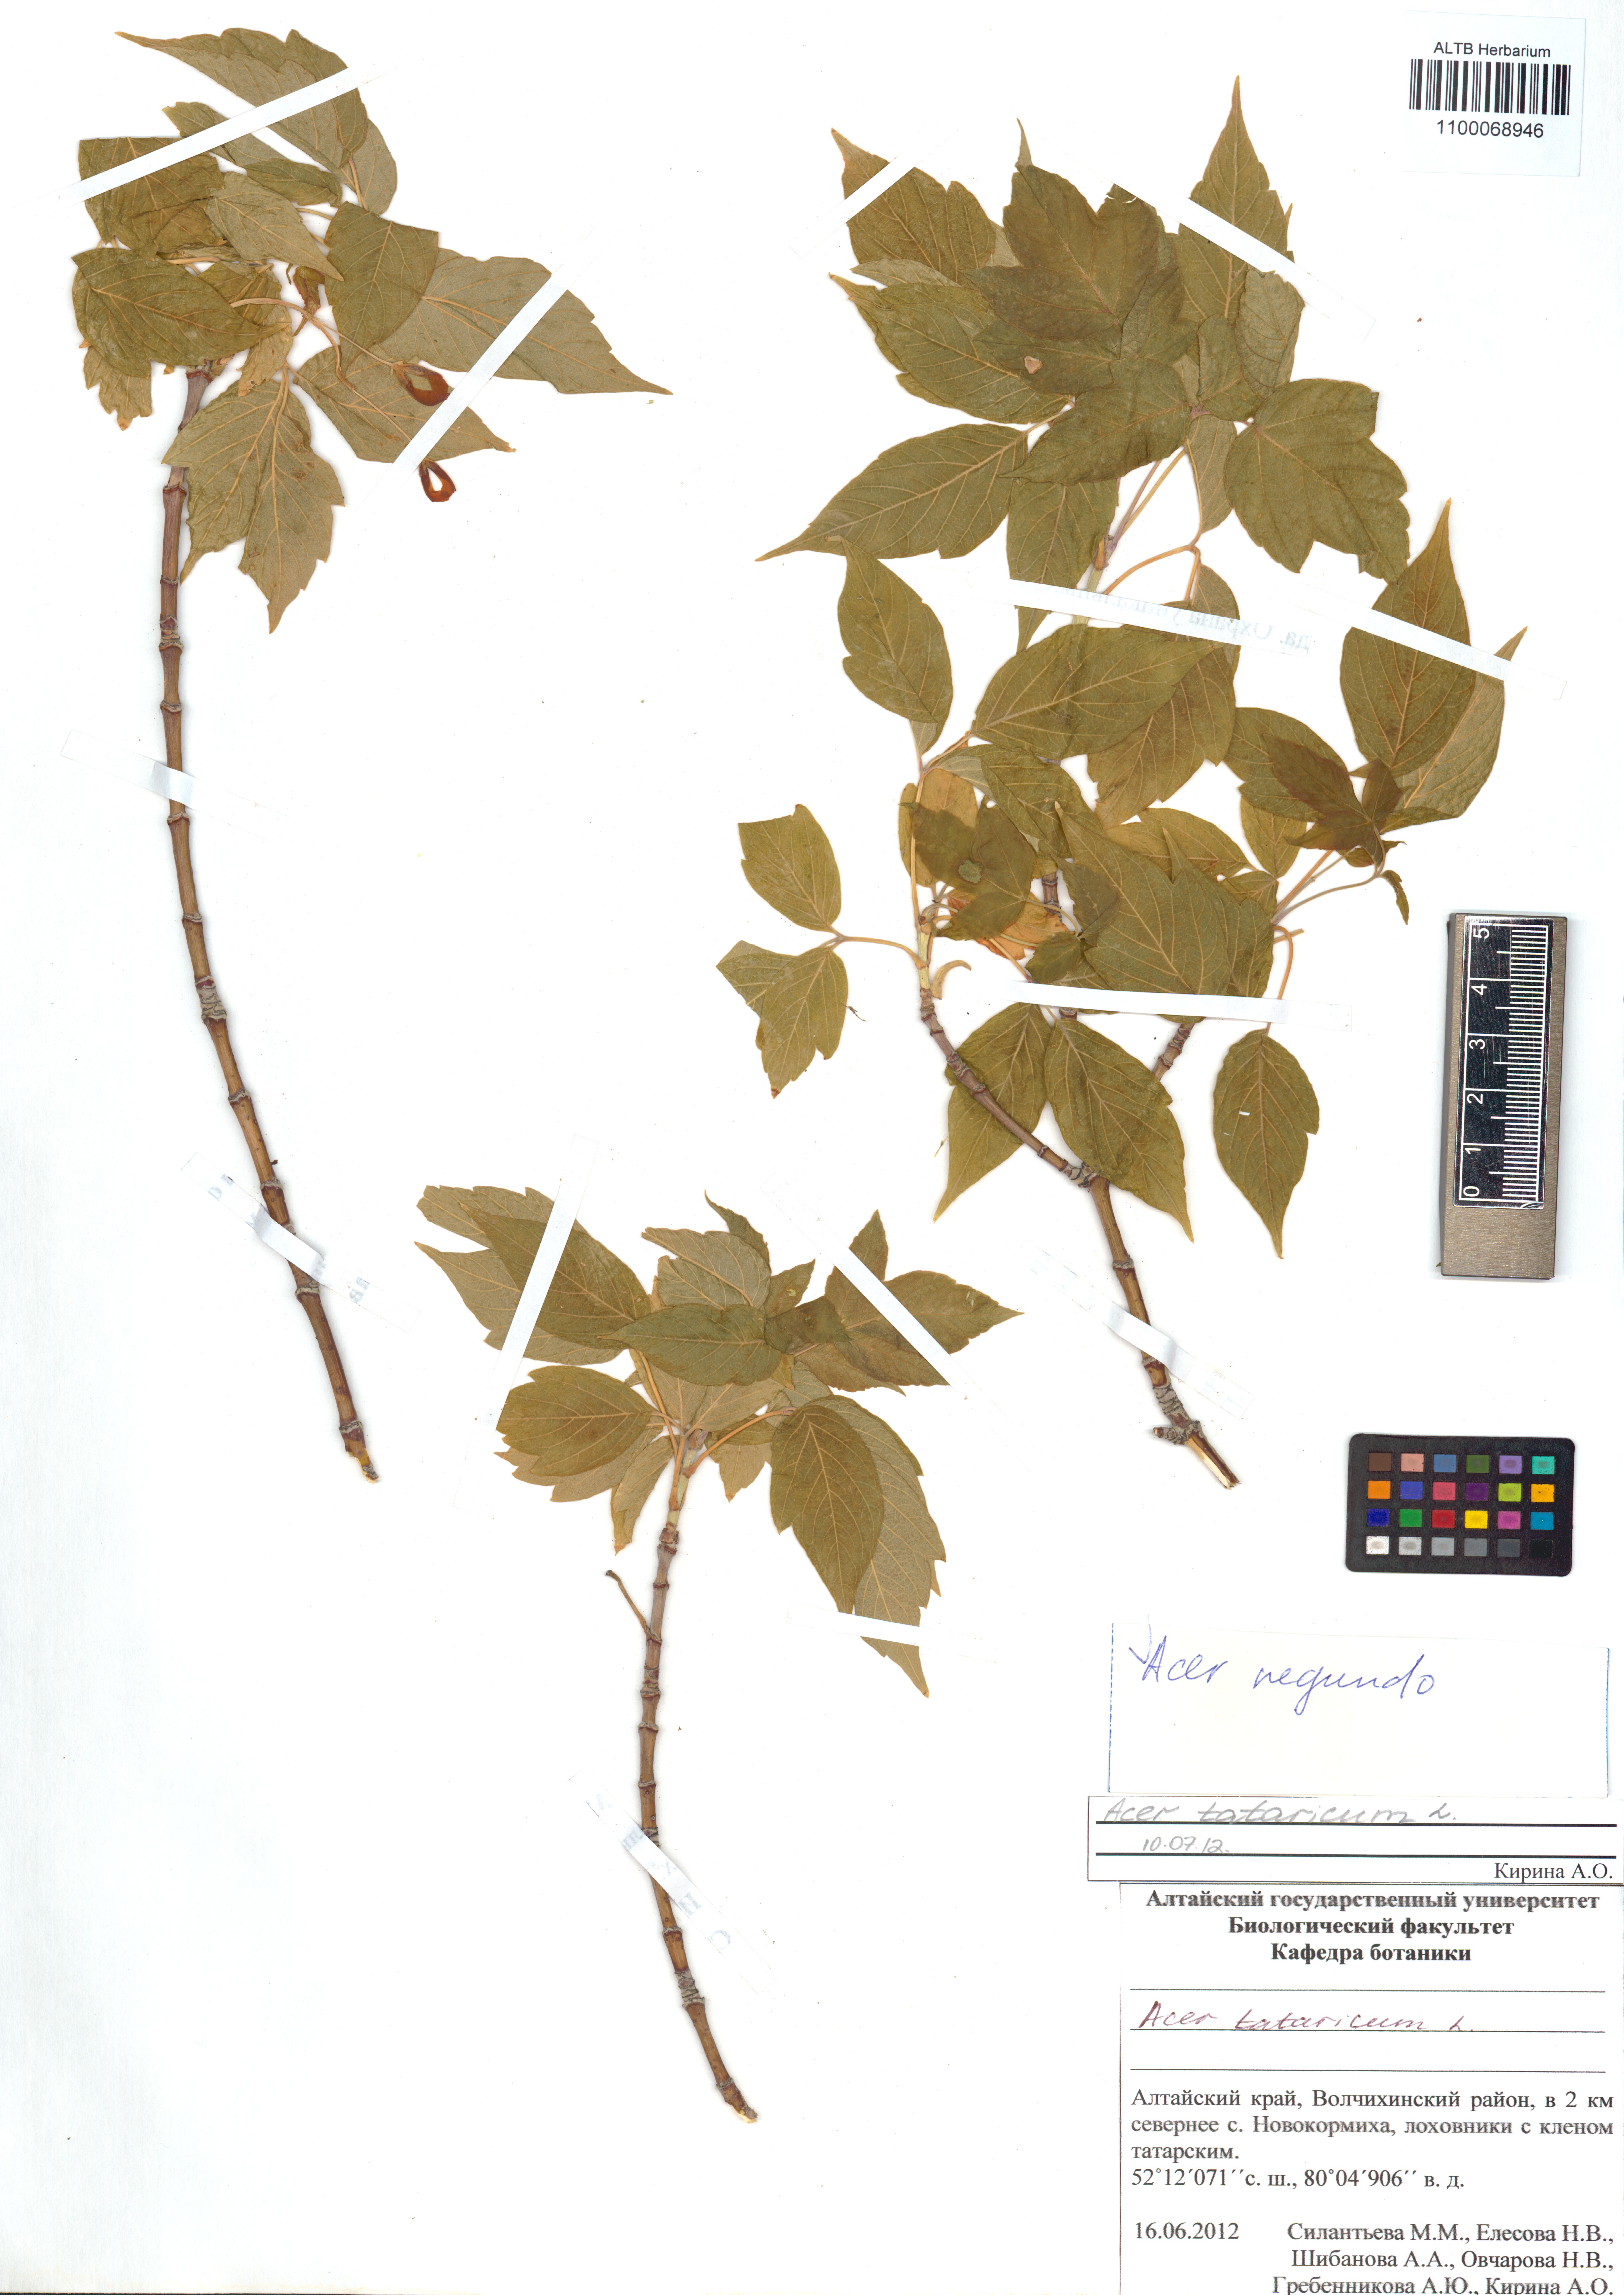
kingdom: Plantae
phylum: Tracheophyta
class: Magnoliopsida
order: Sapindales
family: Sapindaceae
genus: Acer
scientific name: Acer negundo
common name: Ashleaf maple
